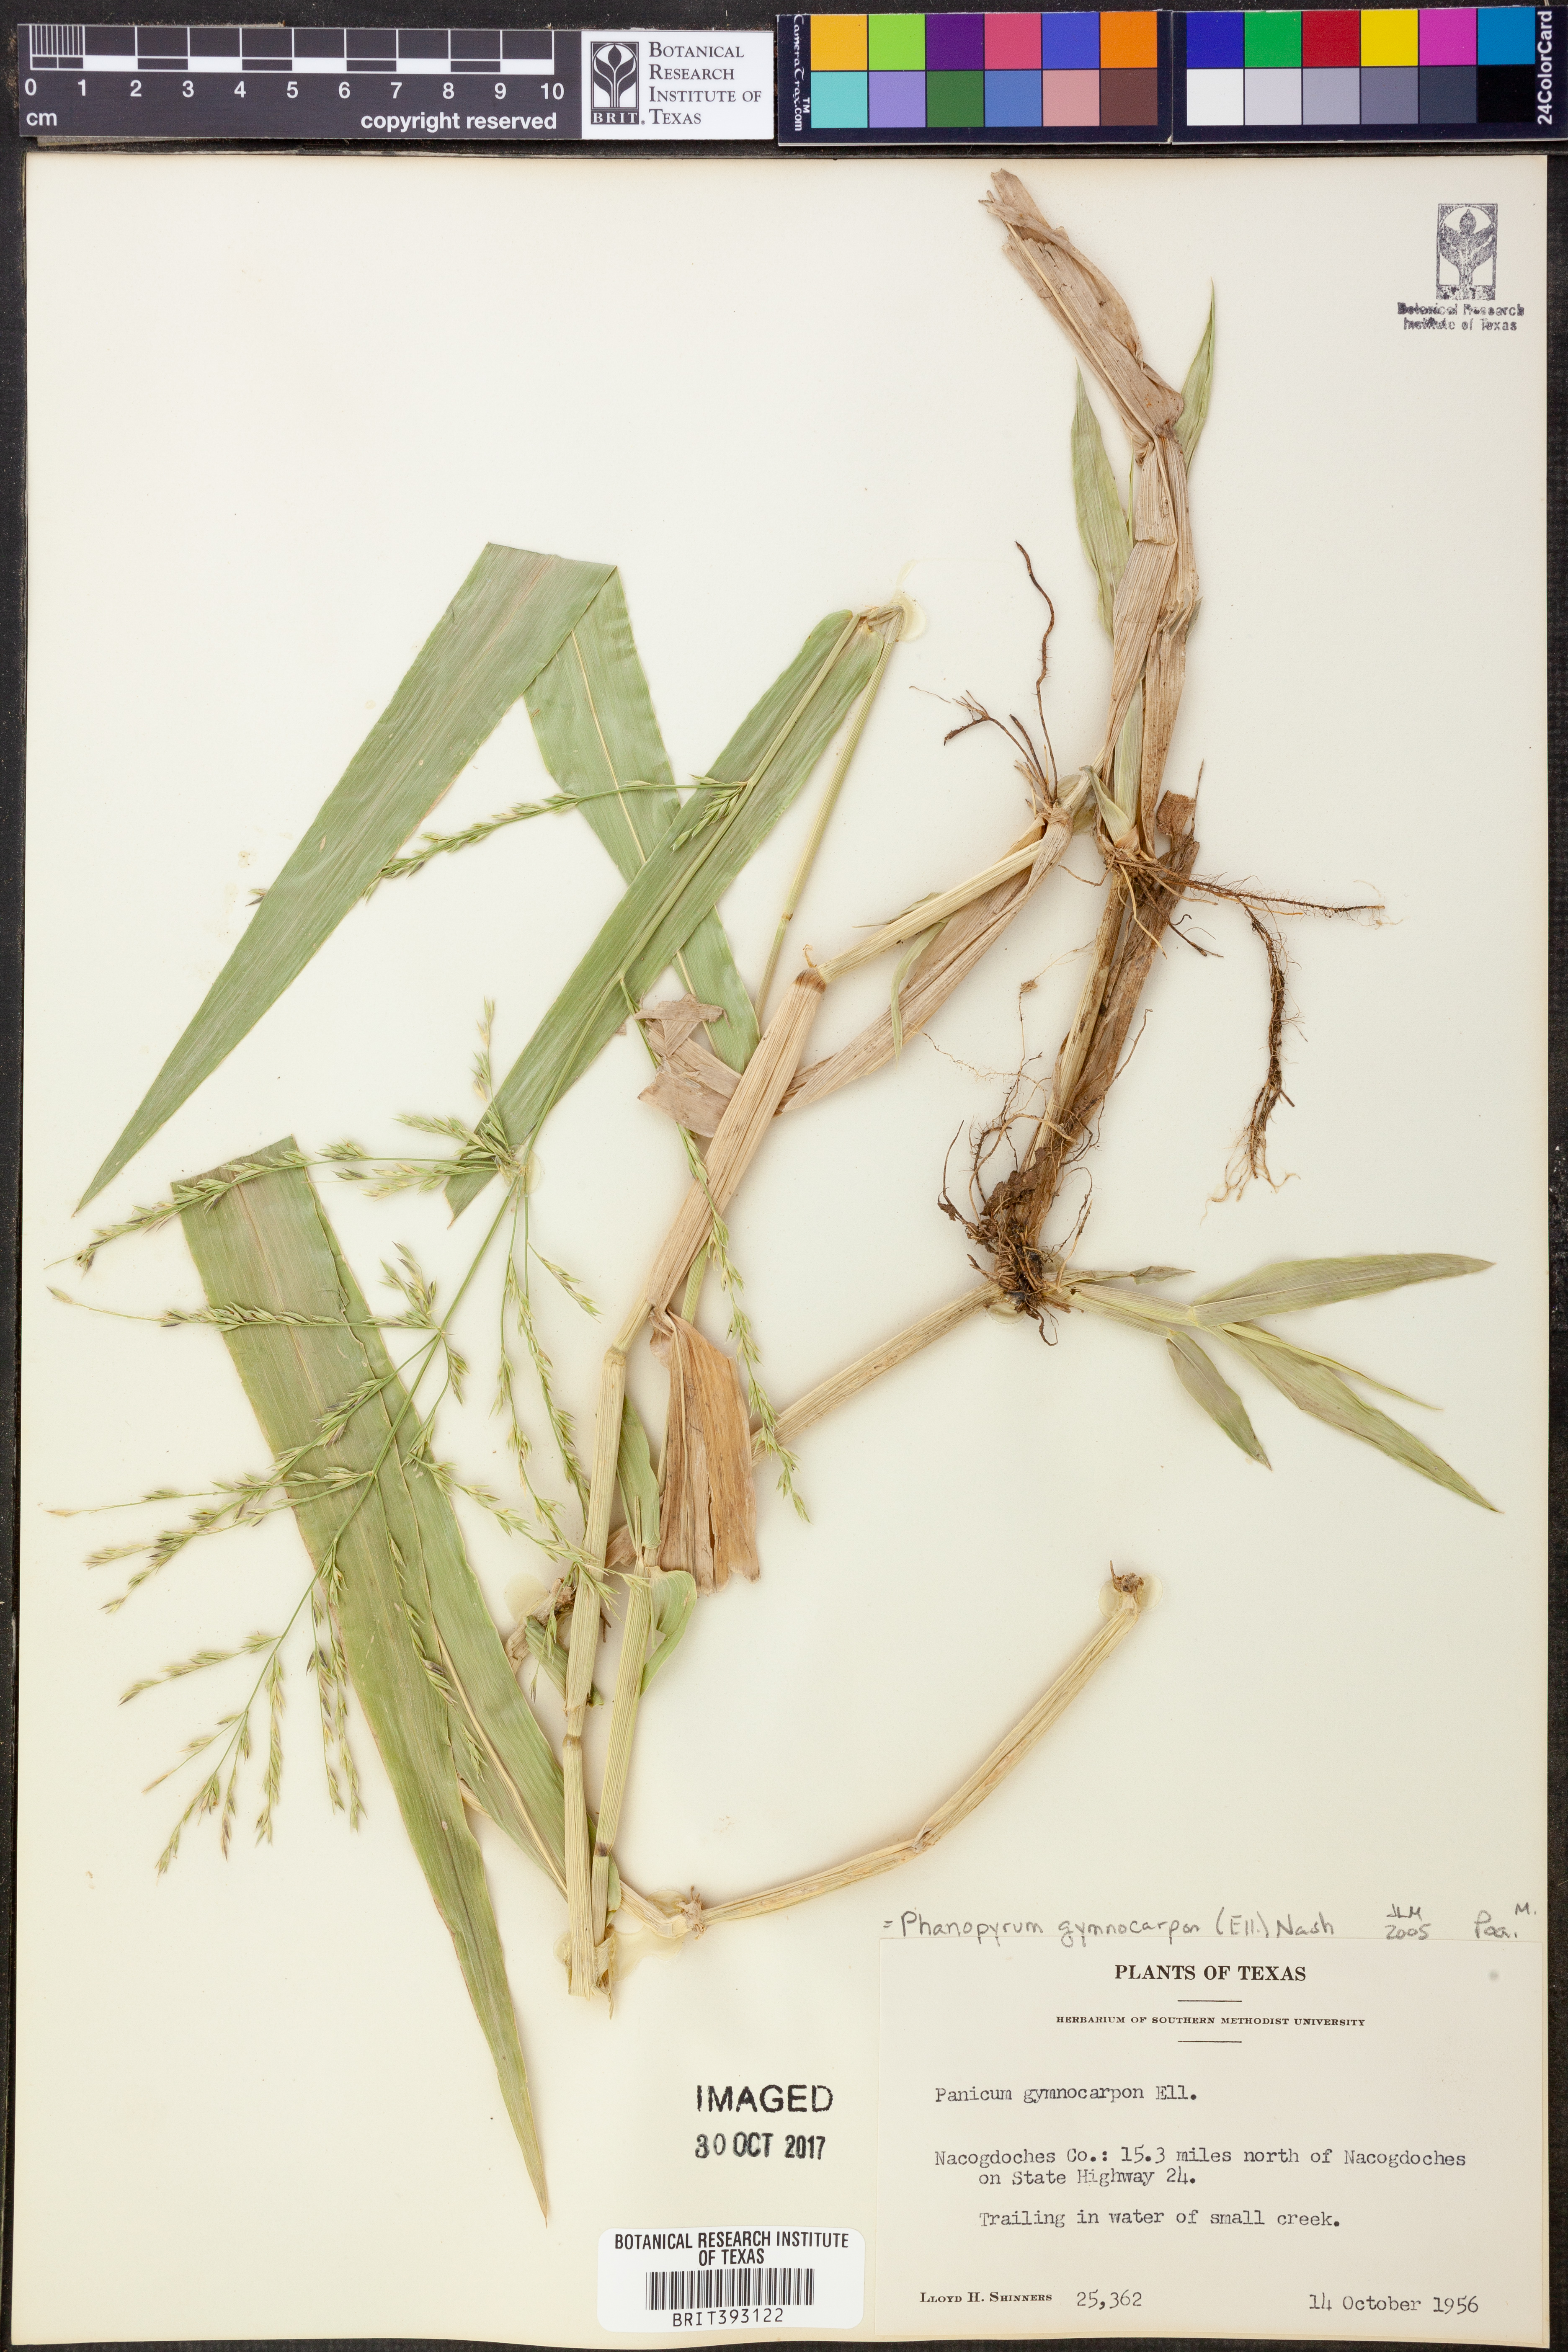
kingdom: Plantae
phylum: Tracheophyta
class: Liliopsida
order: Poales
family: Poaceae
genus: Panicum
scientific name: Panicum gymnocarpon
